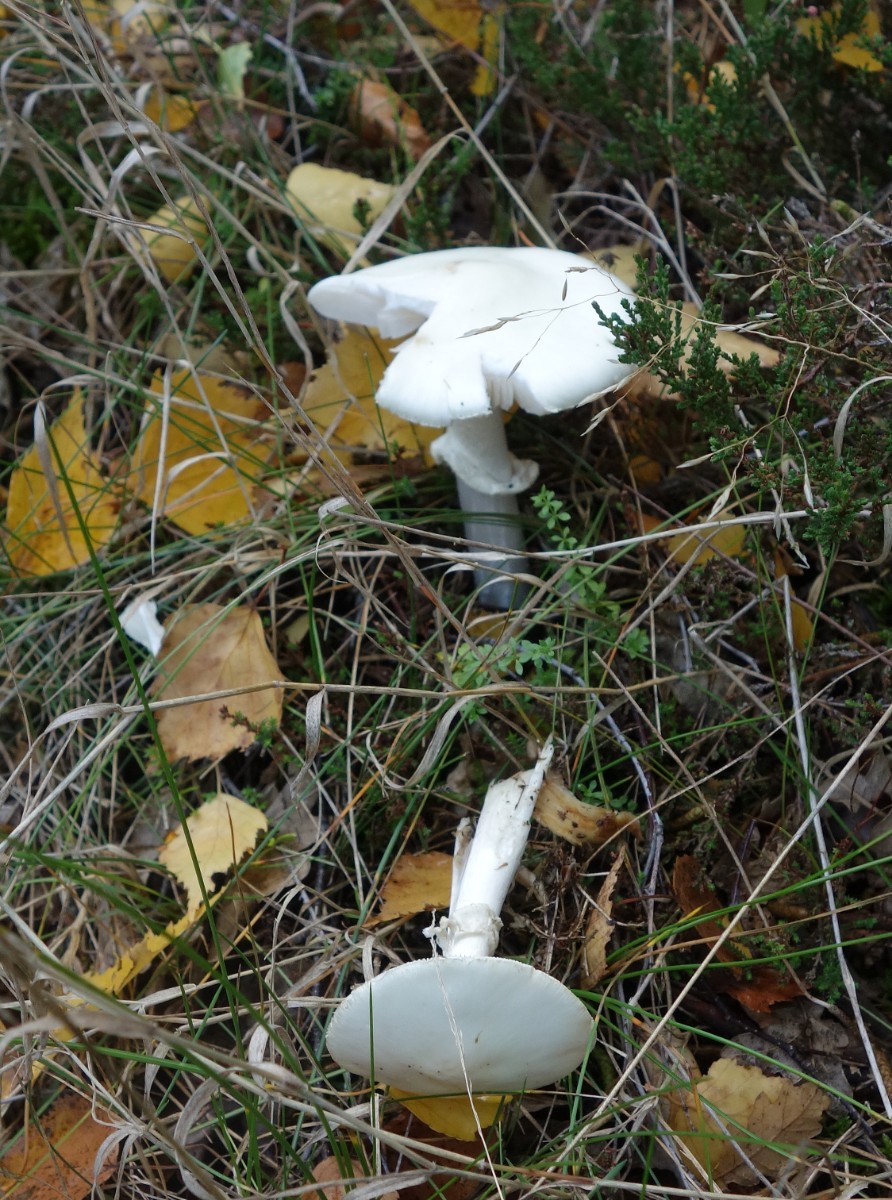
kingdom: Fungi
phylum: Basidiomycota
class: Agaricomycetes
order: Agaricales
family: Amanitaceae
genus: Amanita
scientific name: Amanita citrina
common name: kugleknoldet fluesvamp
